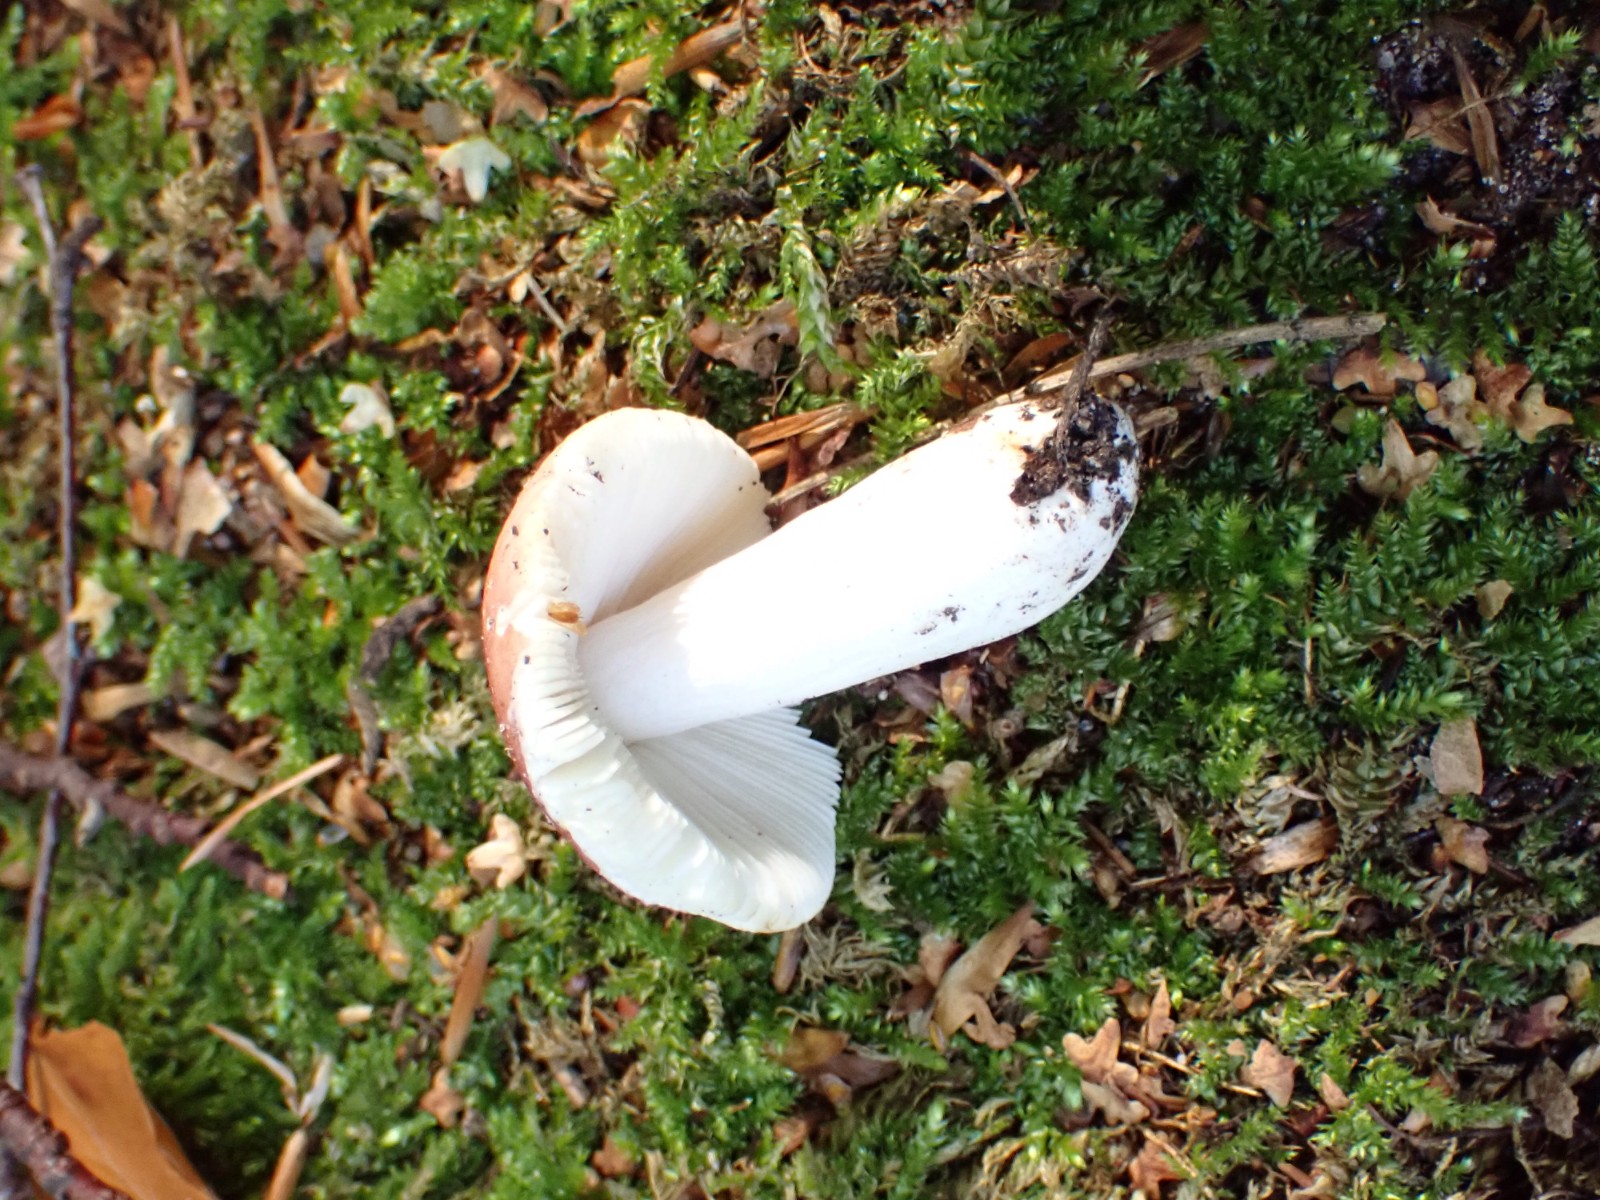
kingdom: Fungi
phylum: Basidiomycota
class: Agaricomycetes
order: Russulales
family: Russulaceae
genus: Russula
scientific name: Russula puellula
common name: gulnende skørhat
